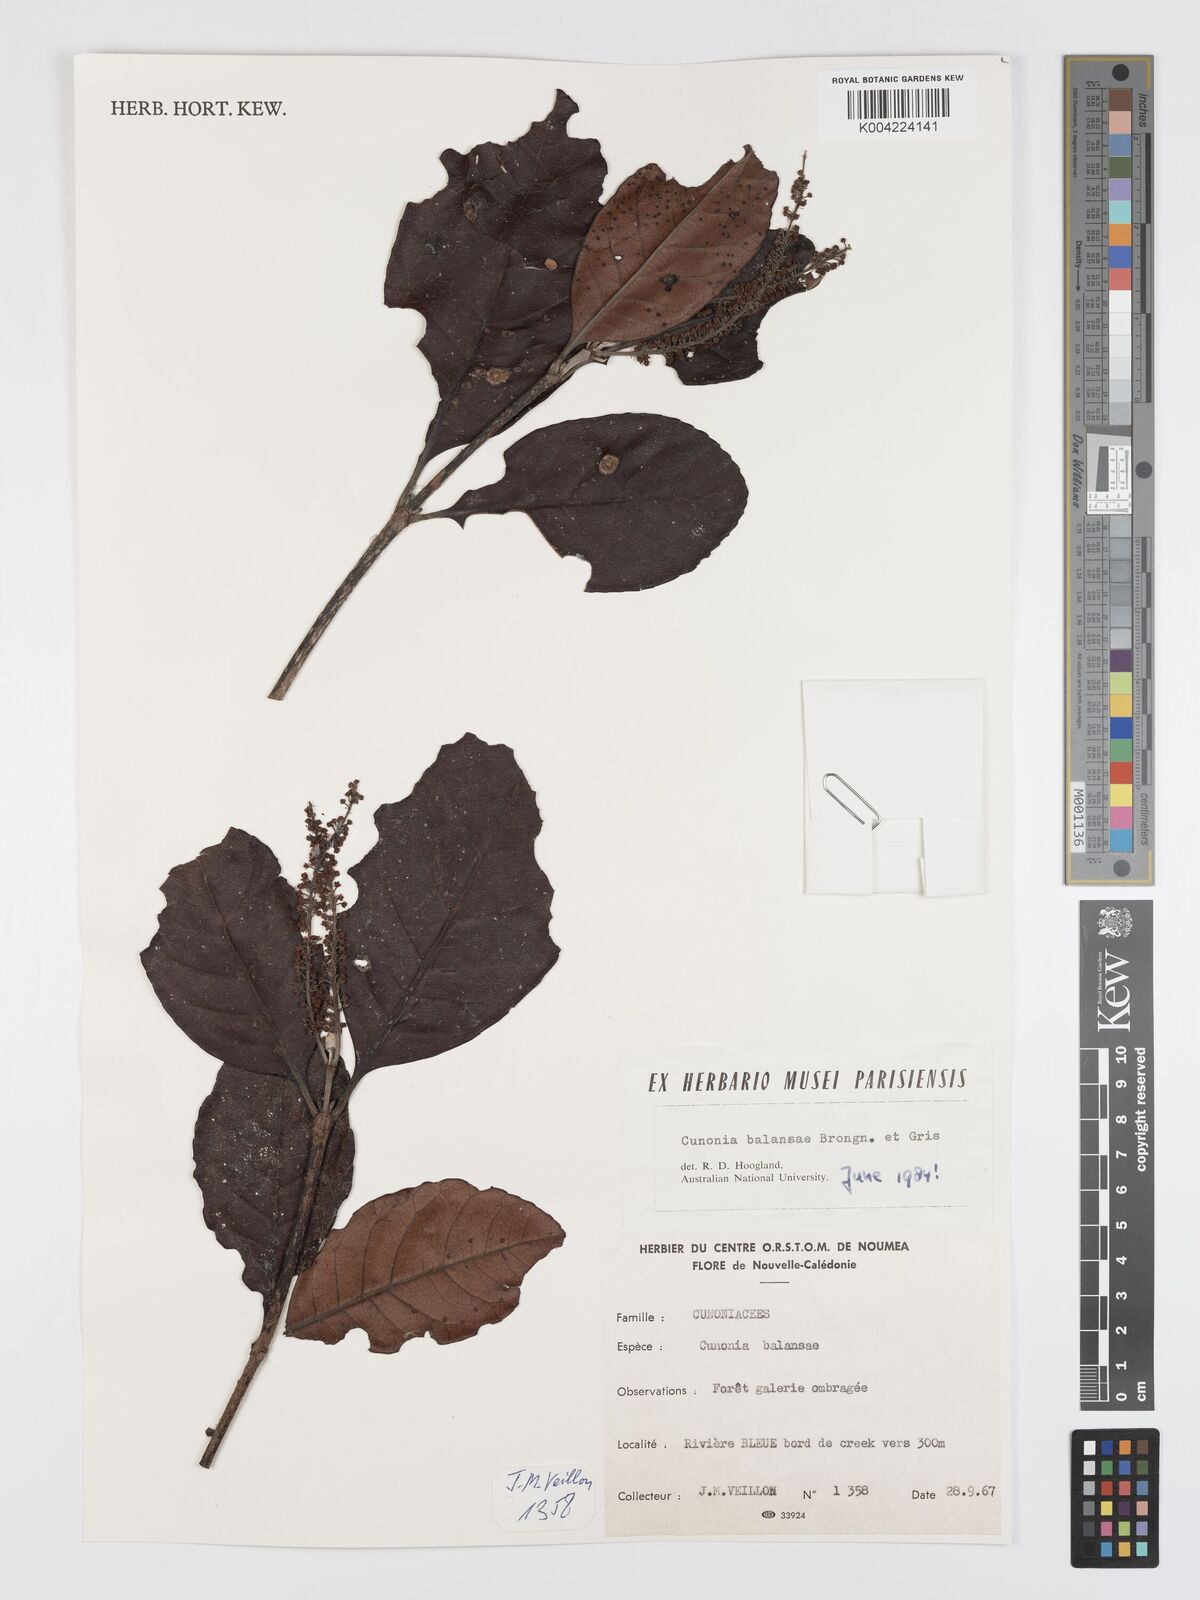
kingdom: Plantae
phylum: Tracheophyta
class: Magnoliopsida
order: Oxalidales
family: Cunoniaceae
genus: Cunonia
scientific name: Cunonia balansae
